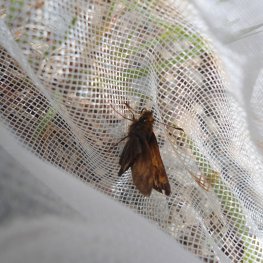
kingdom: Animalia
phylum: Arthropoda
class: Insecta
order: Lepidoptera
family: Hesperiidae
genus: Lon
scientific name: Lon hobomok
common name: Hobomok Skipper
